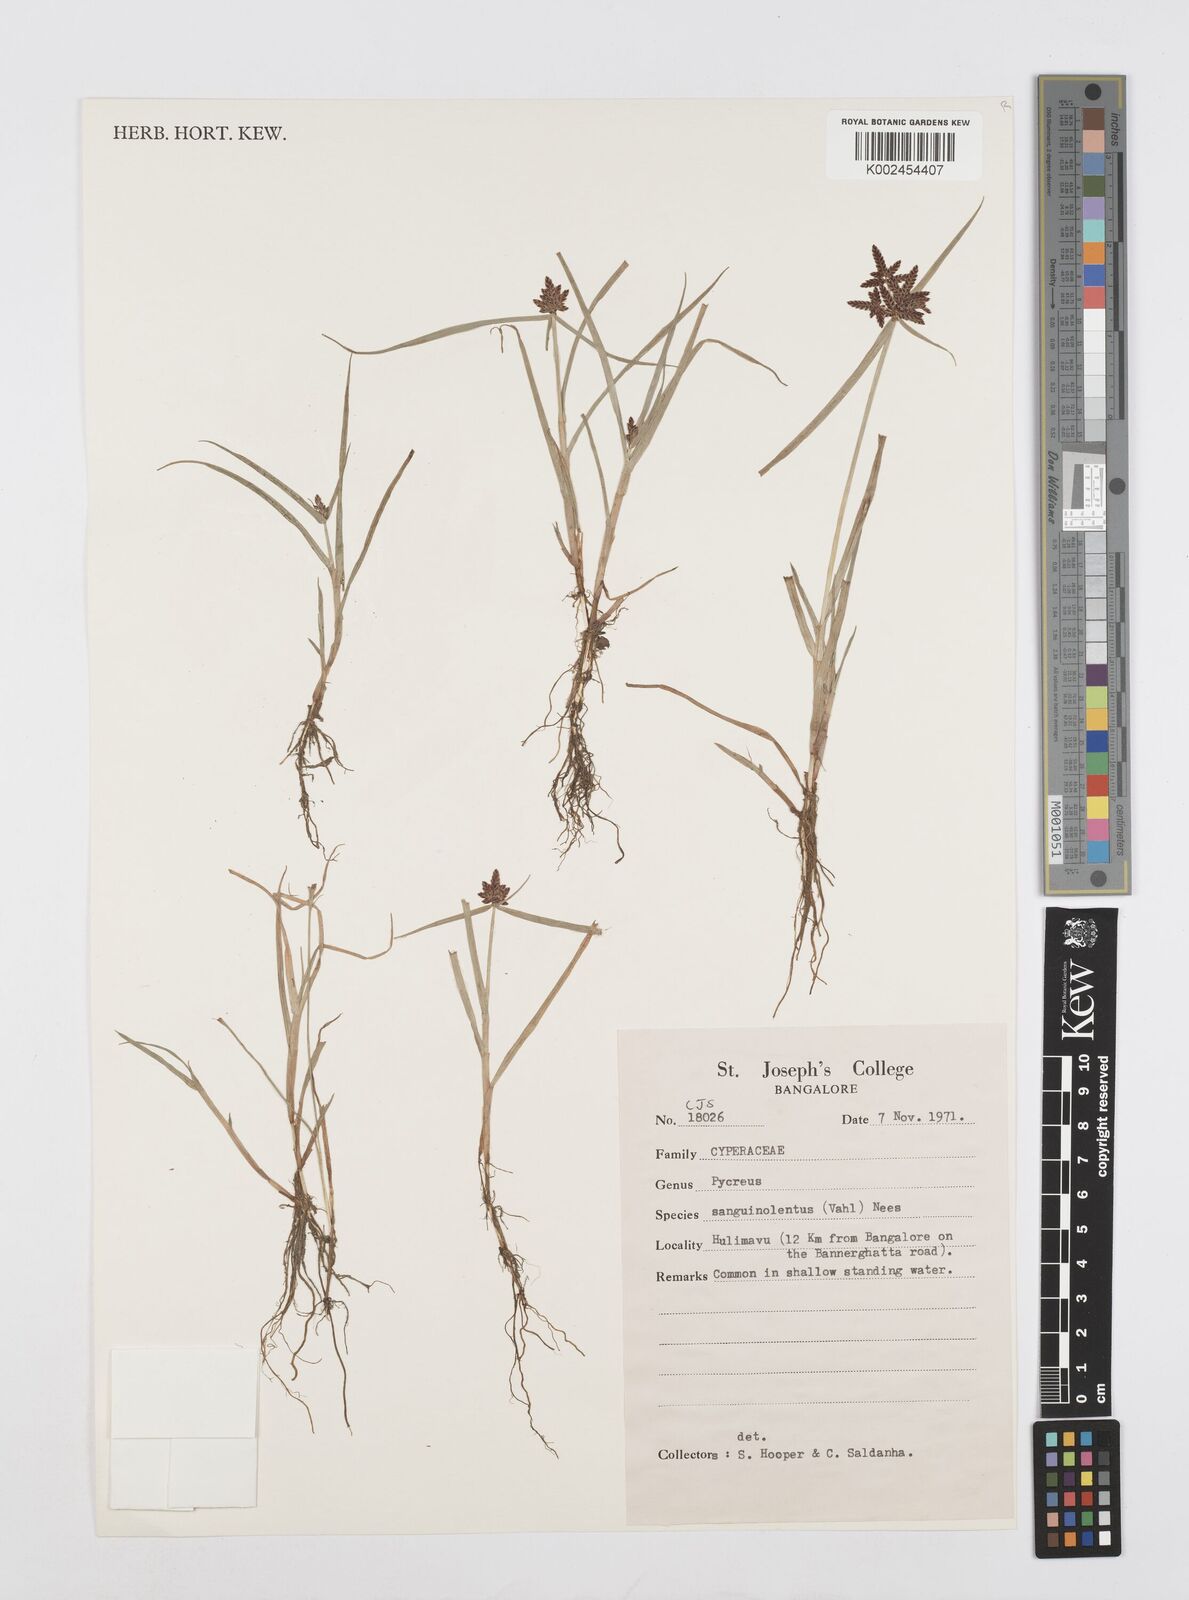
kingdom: Plantae
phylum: Tracheophyta
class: Liliopsida
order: Poales
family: Cyperaceae
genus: Cyperus
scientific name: Cyperus sanguinolentus
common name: Purpleglume flatsedge
